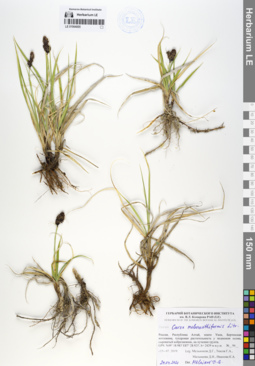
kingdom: Plantae
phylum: Tracheophyta
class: Liliopsida
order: Poales
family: Cyperaceae
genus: Carex
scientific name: Carex melananthiformis
